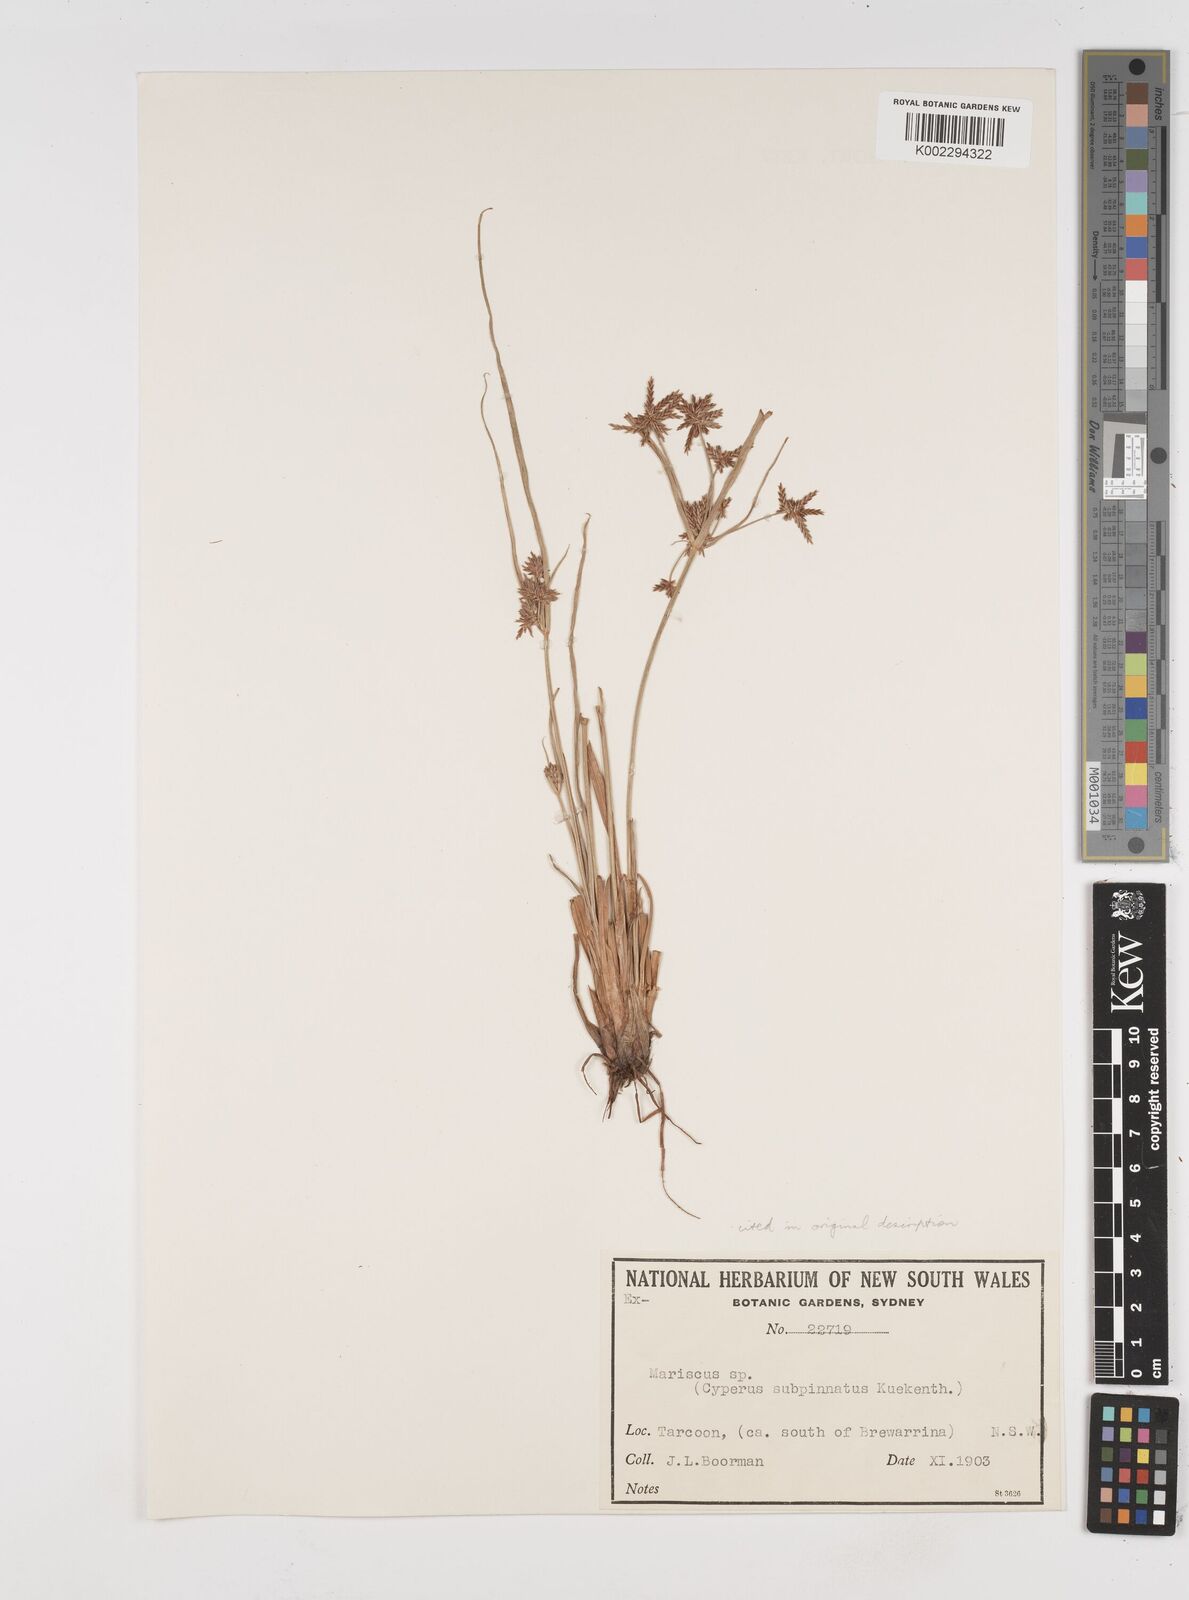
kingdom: Plantae
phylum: Tracheophyta
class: Liliopsida
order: Poales
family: Cyperaceae
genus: Cyperus
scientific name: Cyperus rigidellus
